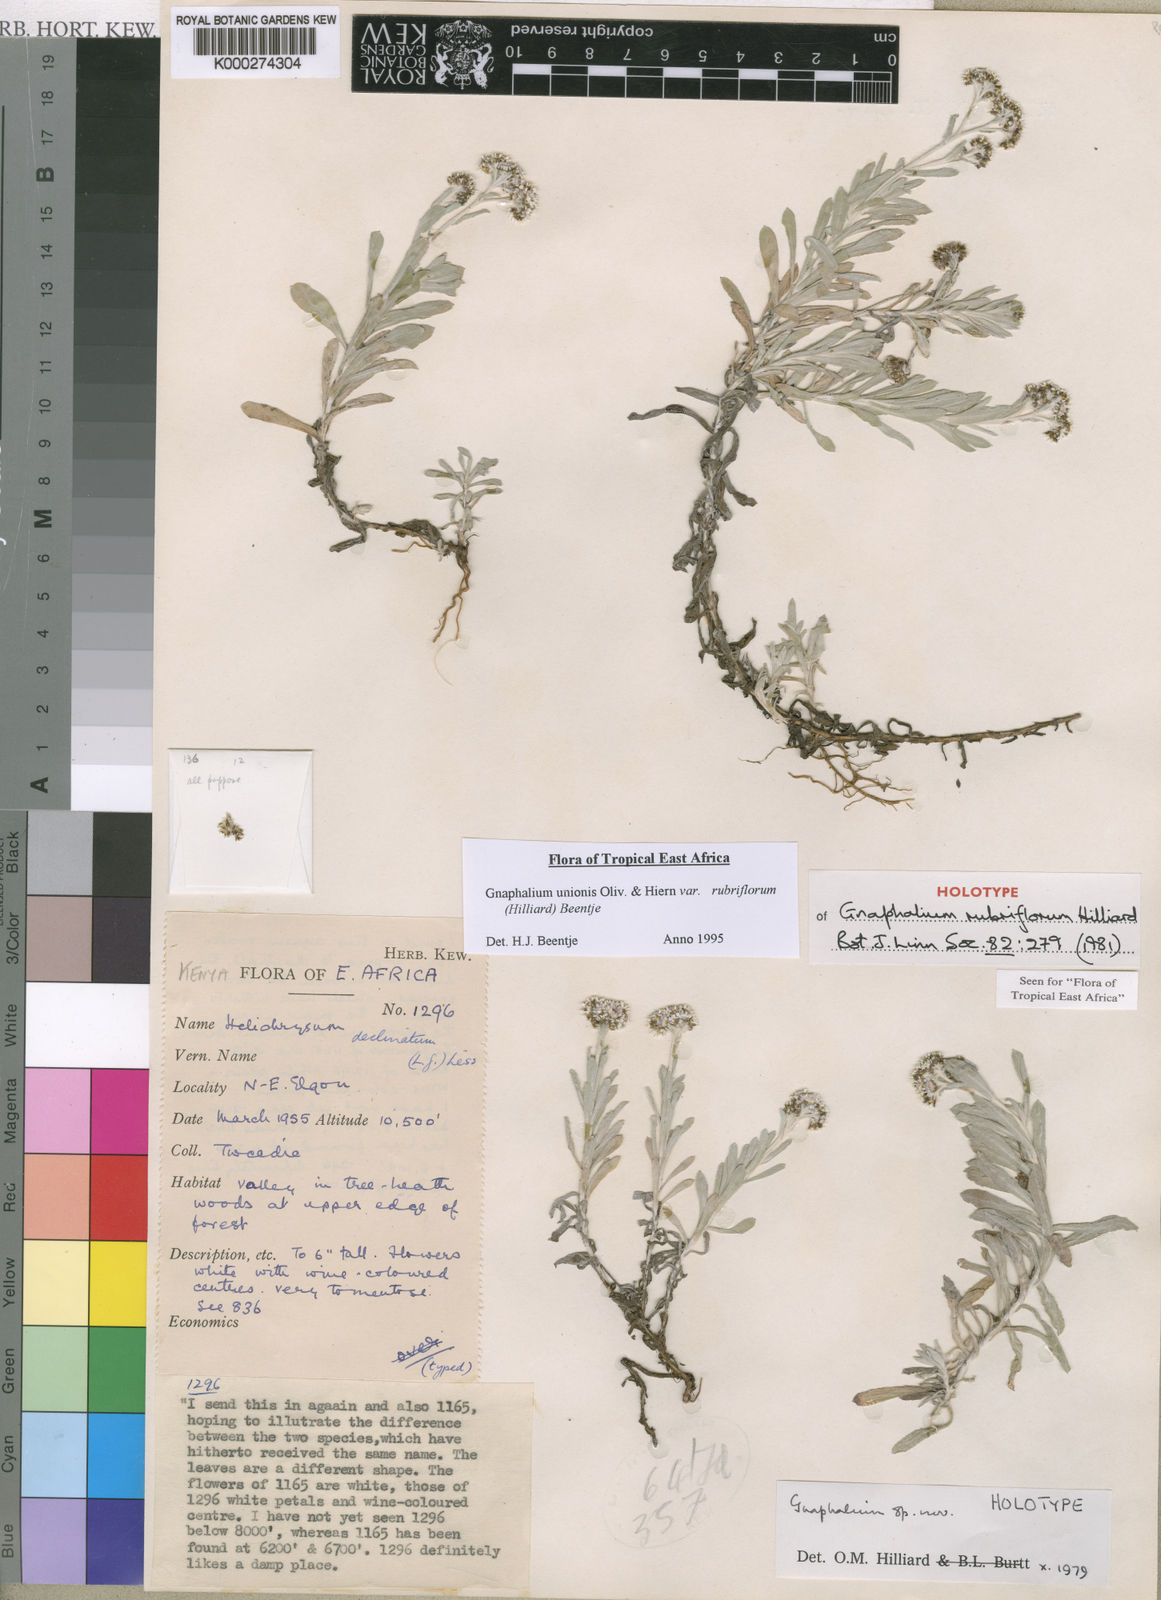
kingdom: Plantae
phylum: Tracheophyta
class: Magnoliopsida
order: Asterales
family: Asteraceae
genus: Gnaphalium
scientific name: Gnaphalium unionis
